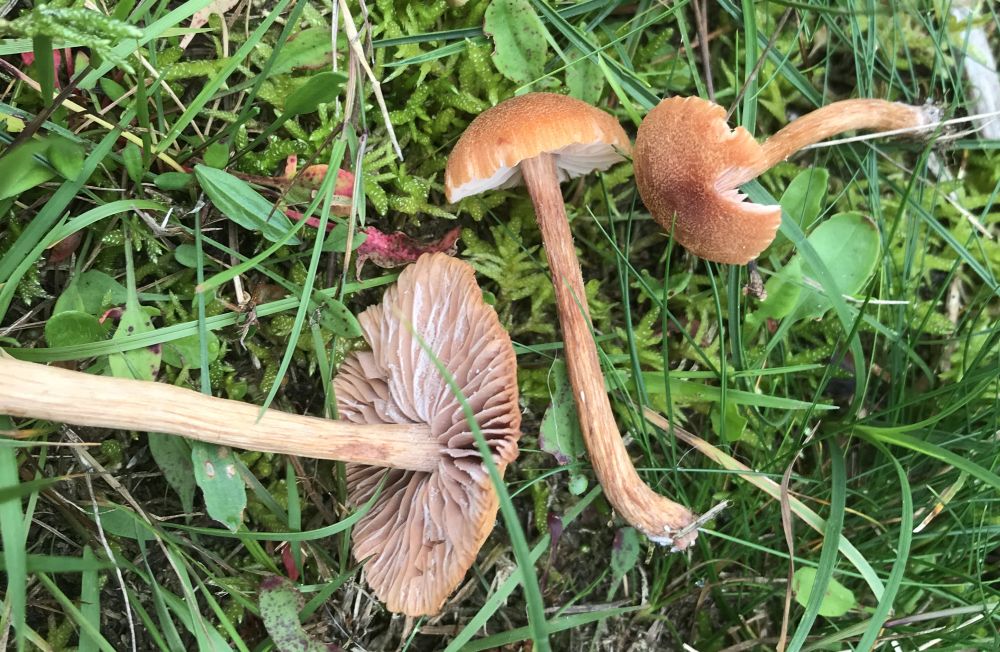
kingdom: Fungi
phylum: Basidiomycota
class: Agaricomycetes
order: Agaricales
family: Hydnangiaceae
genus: Laccaria
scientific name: Laccaria proxima
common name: stor ametysthat
